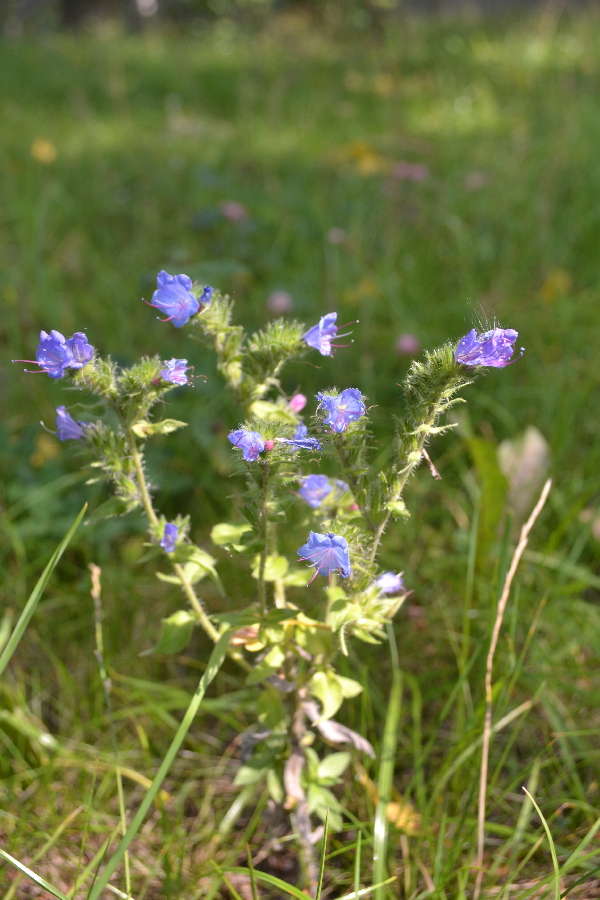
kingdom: Plantae
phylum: Tracheophyta
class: Magnoliopsida
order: Boraginales
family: Boraginaceae
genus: Echium
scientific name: Echium vulgare
